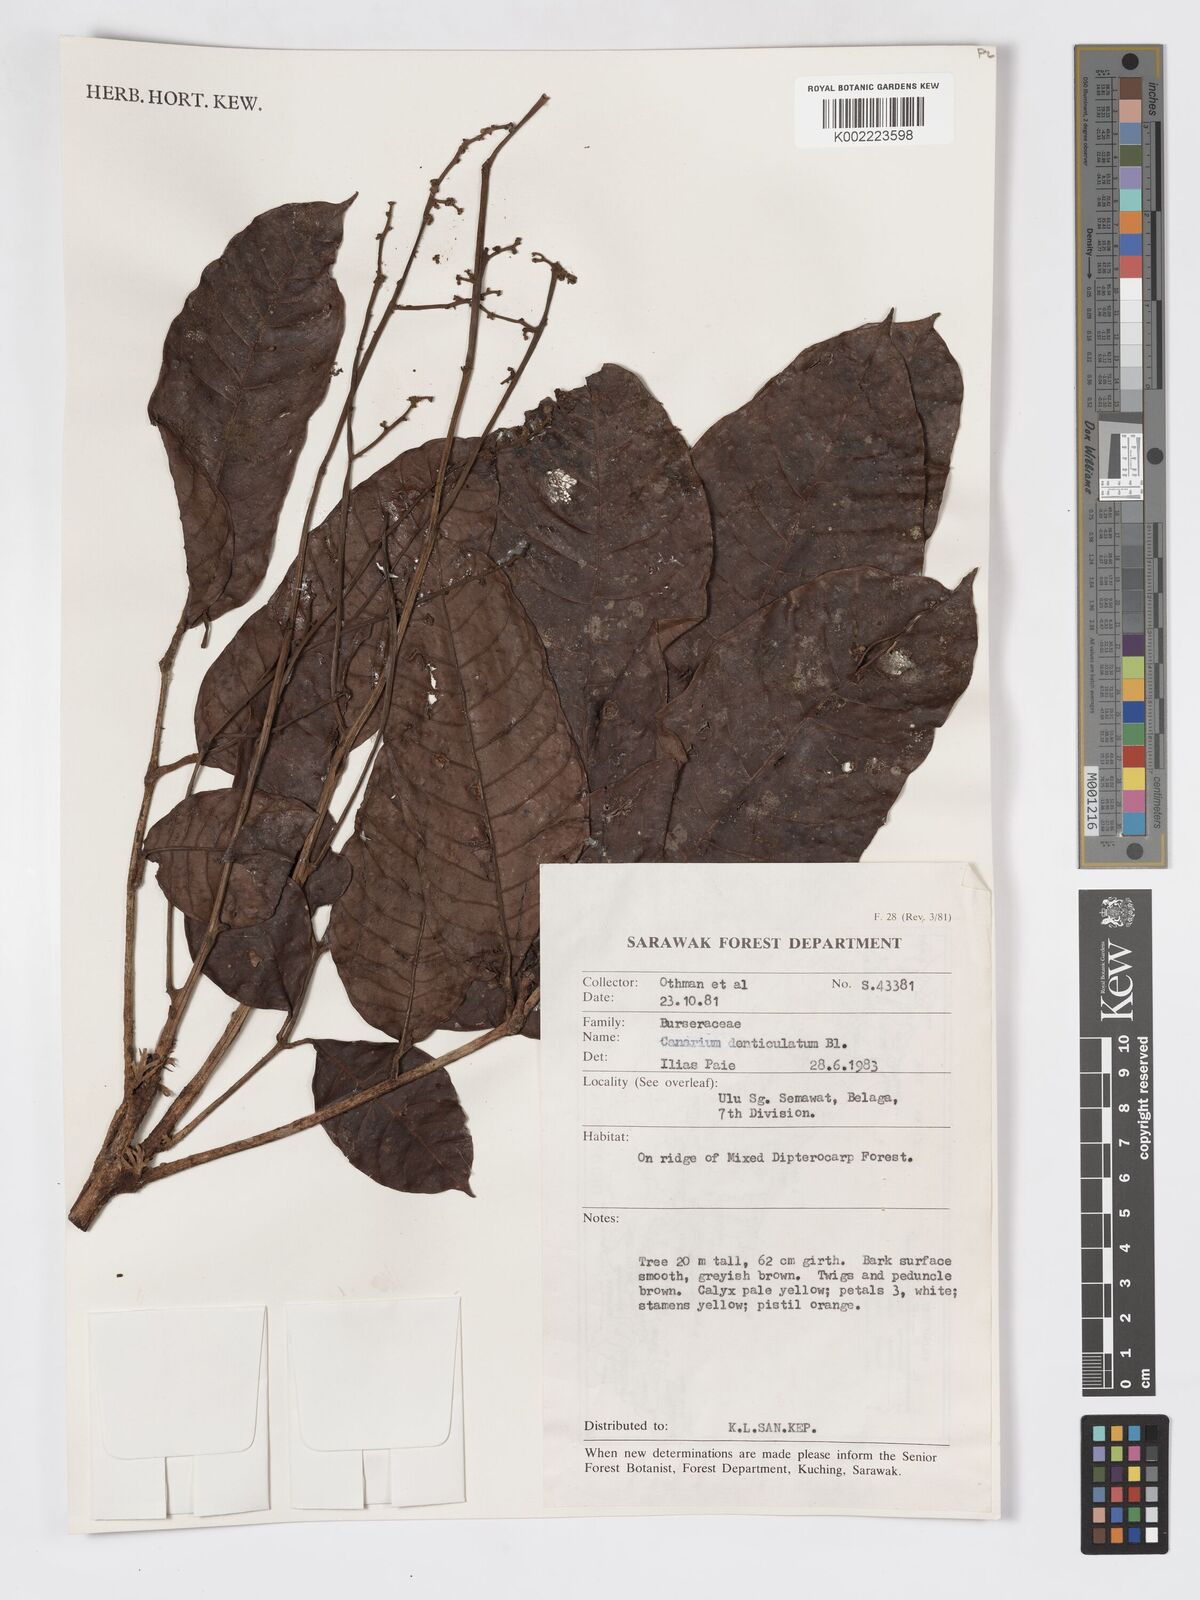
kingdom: Plantae
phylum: Tracheophyta
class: Magnoliopsida
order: Sapindales
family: Burseraceae
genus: Canarium
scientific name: Canarium denticulatum
